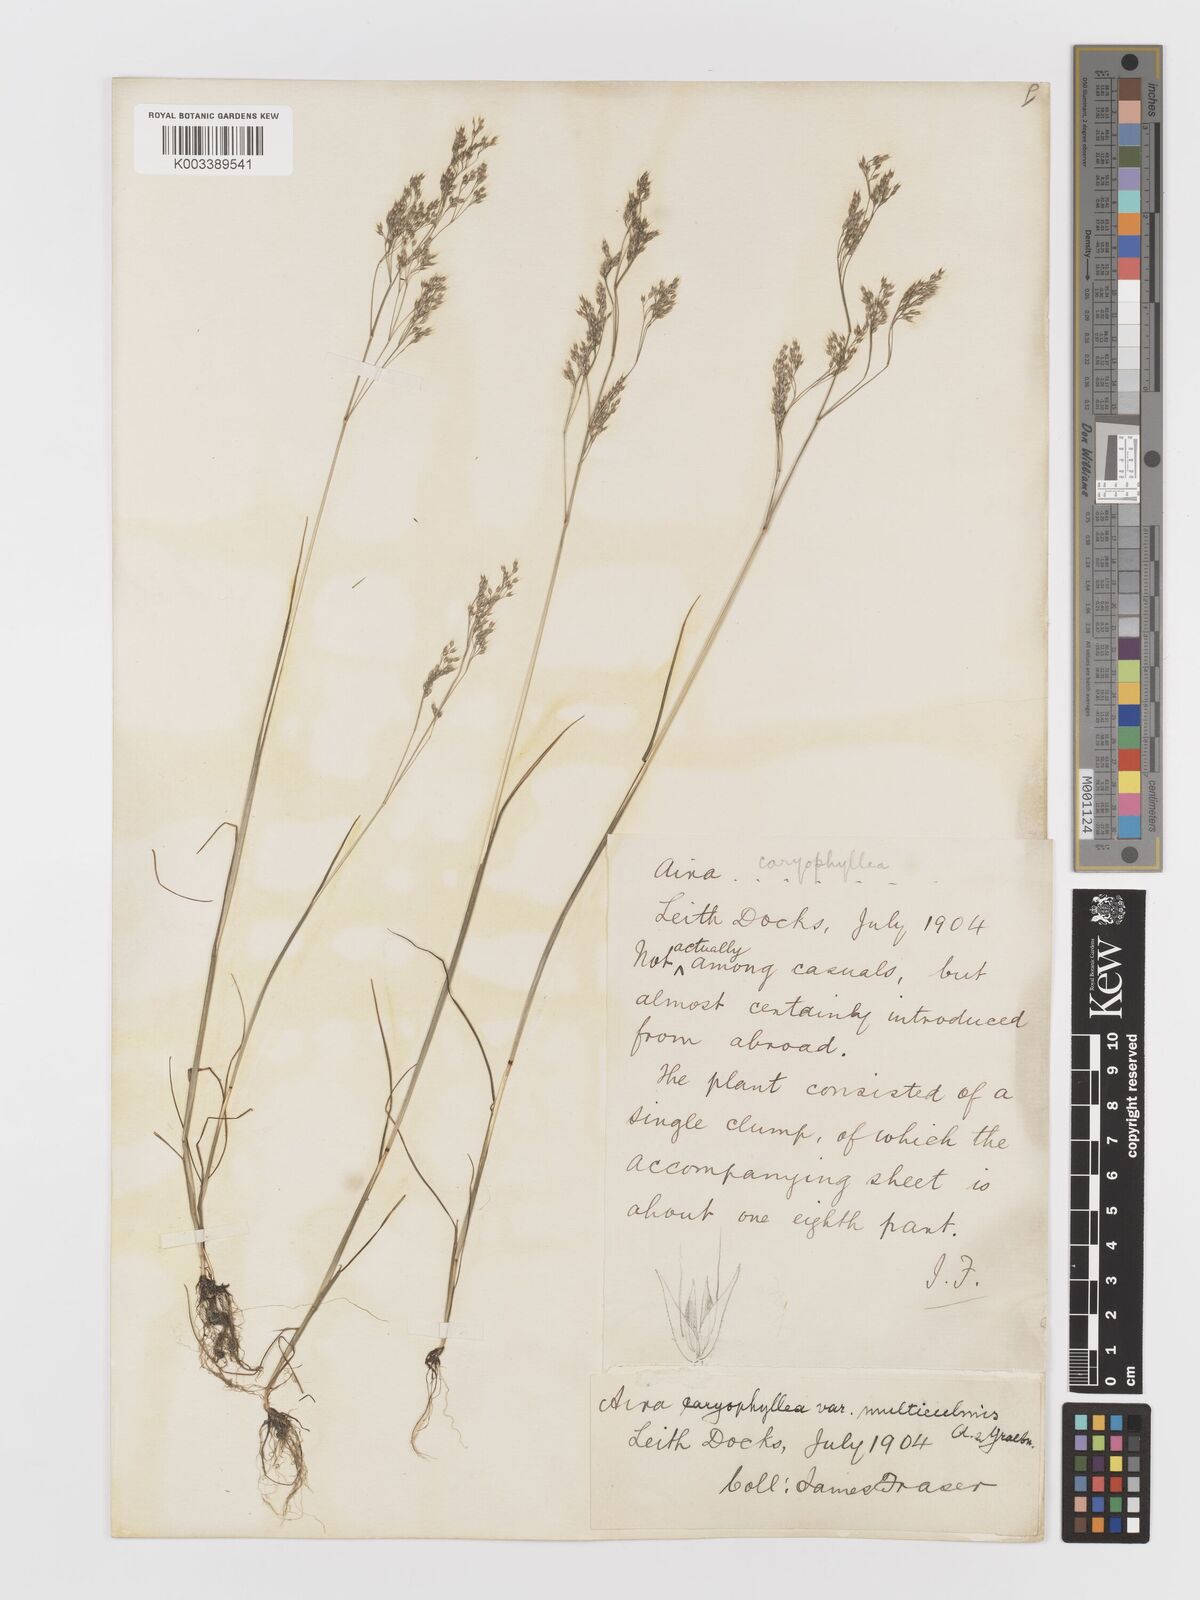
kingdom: Plantae
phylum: Tracheophyta
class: Liliopsida
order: Poales
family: Poaceae
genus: Aira
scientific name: Aira caryophyllea
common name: Silver hairgrass
